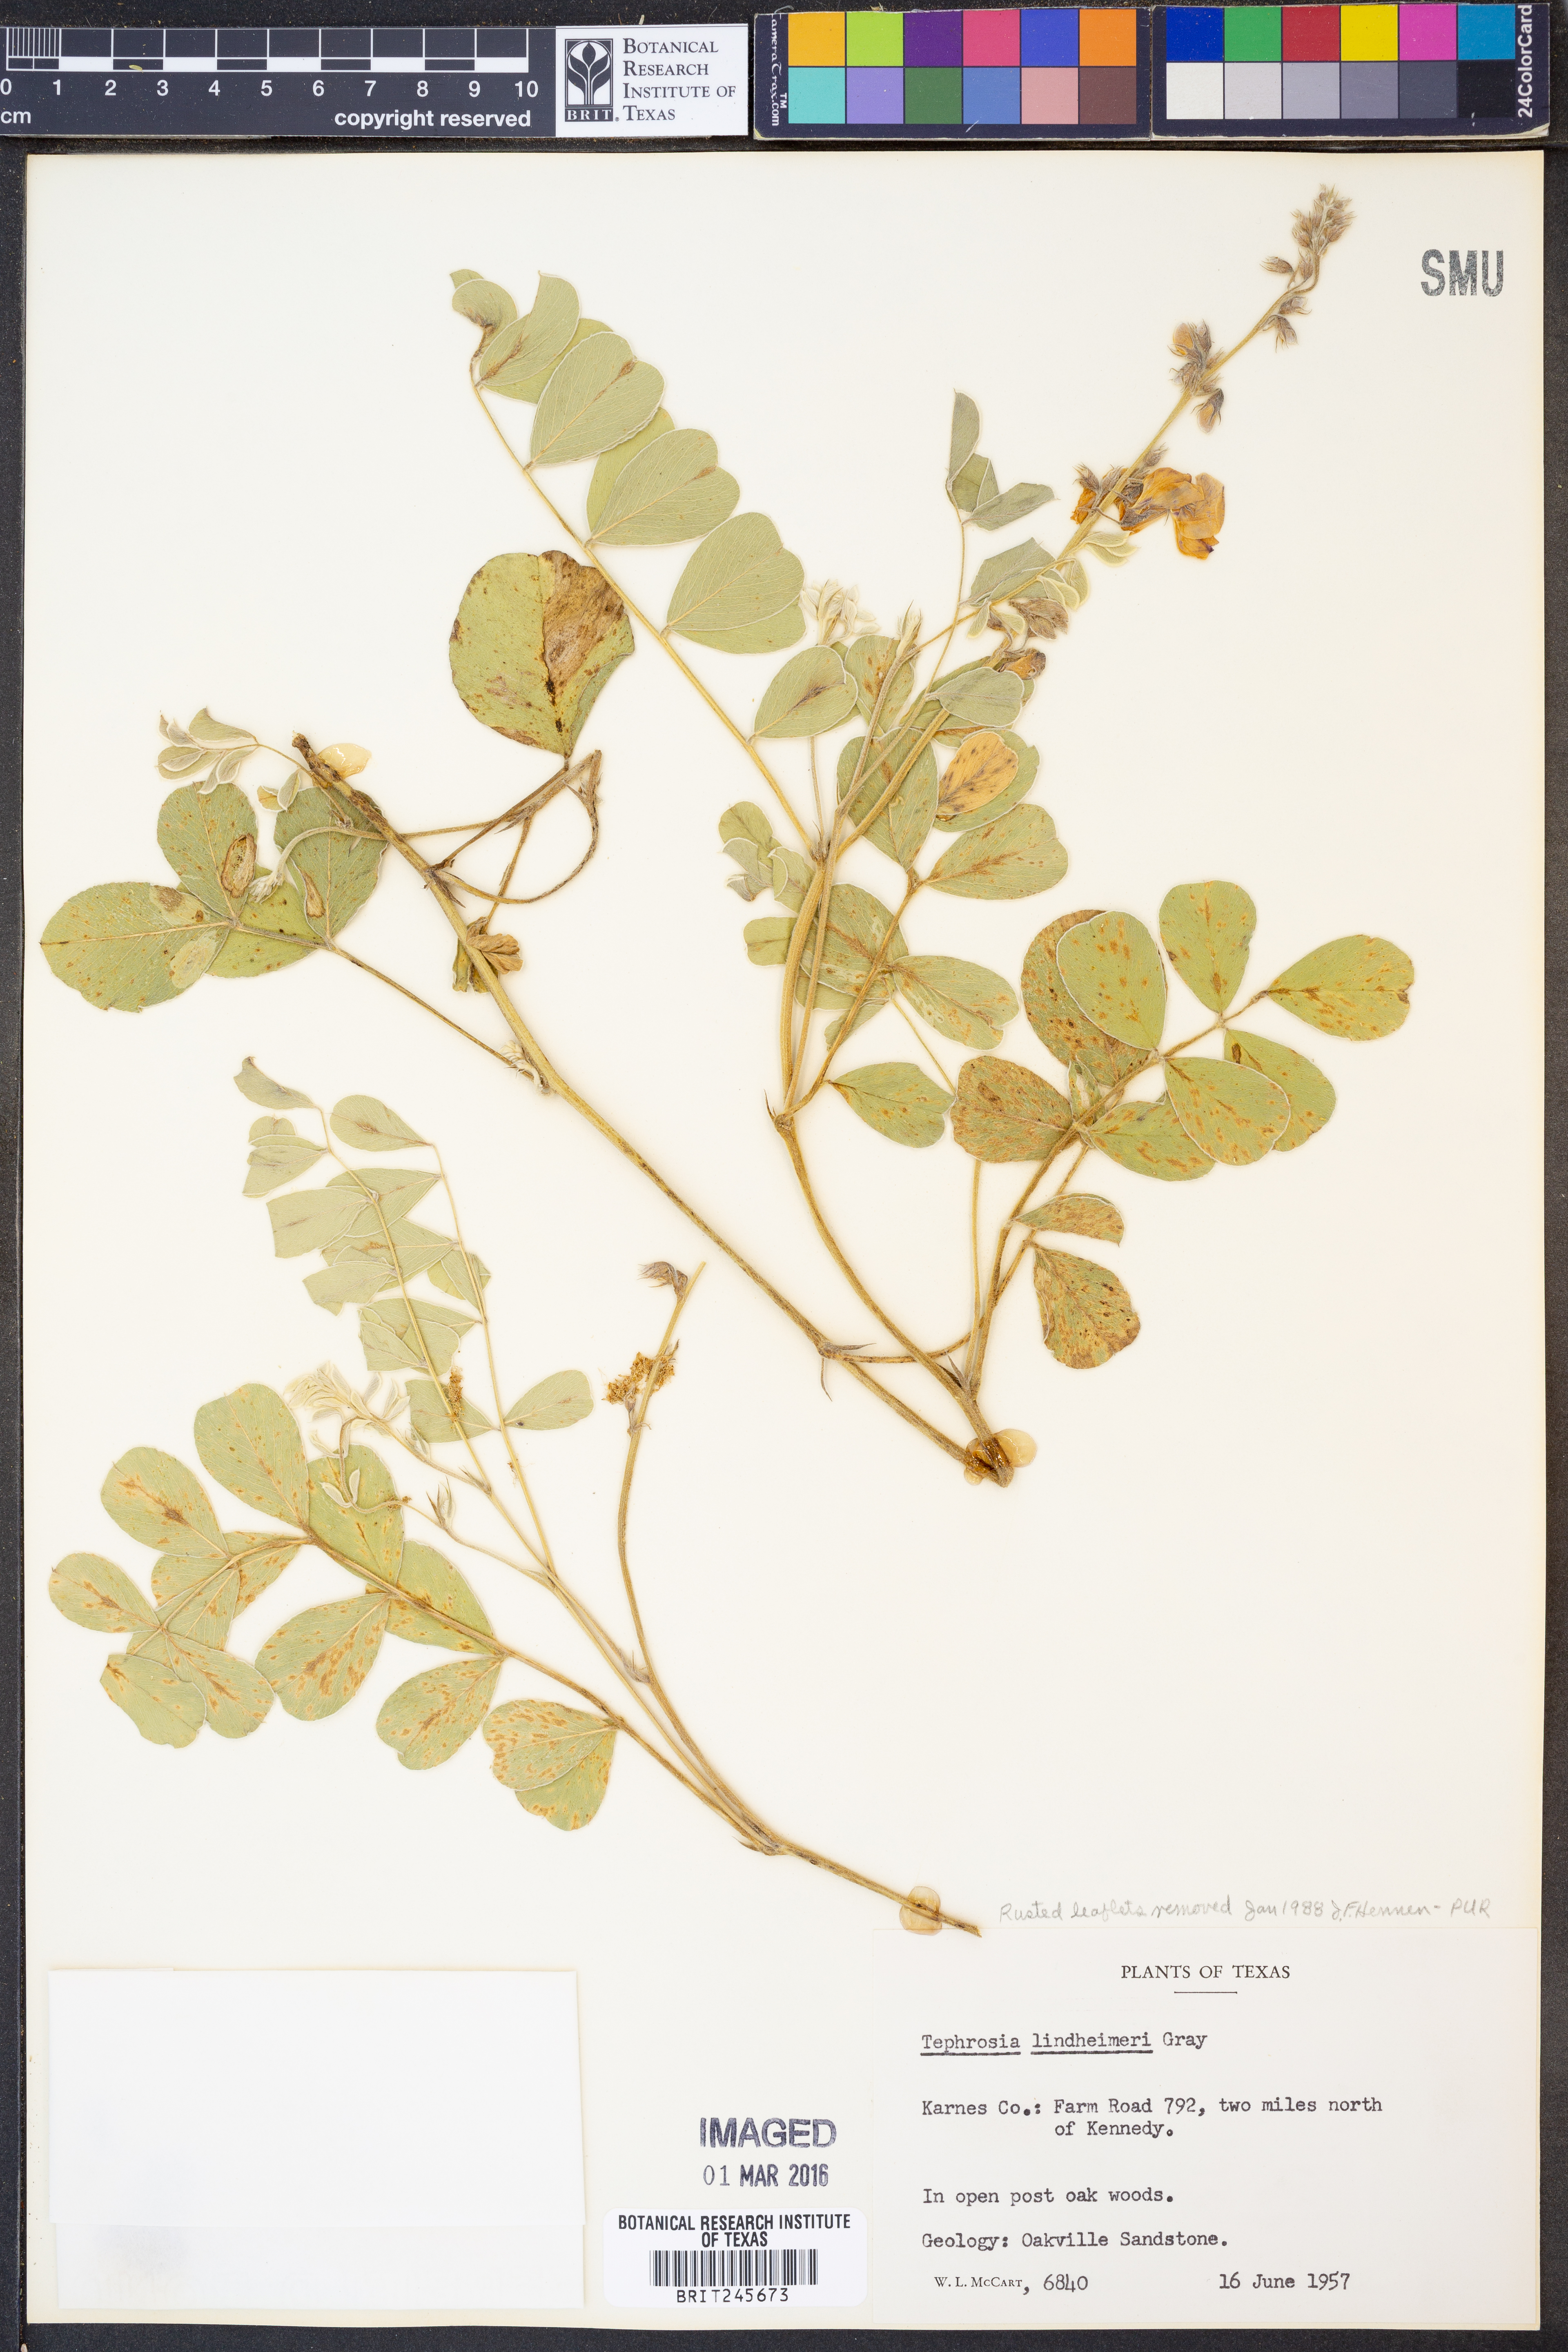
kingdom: Plantae
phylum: Tracheophyta
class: Magnoliopsida
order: Fabales
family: Fabaceae
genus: Tephrosia
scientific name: Tephrosia lindheimeri
